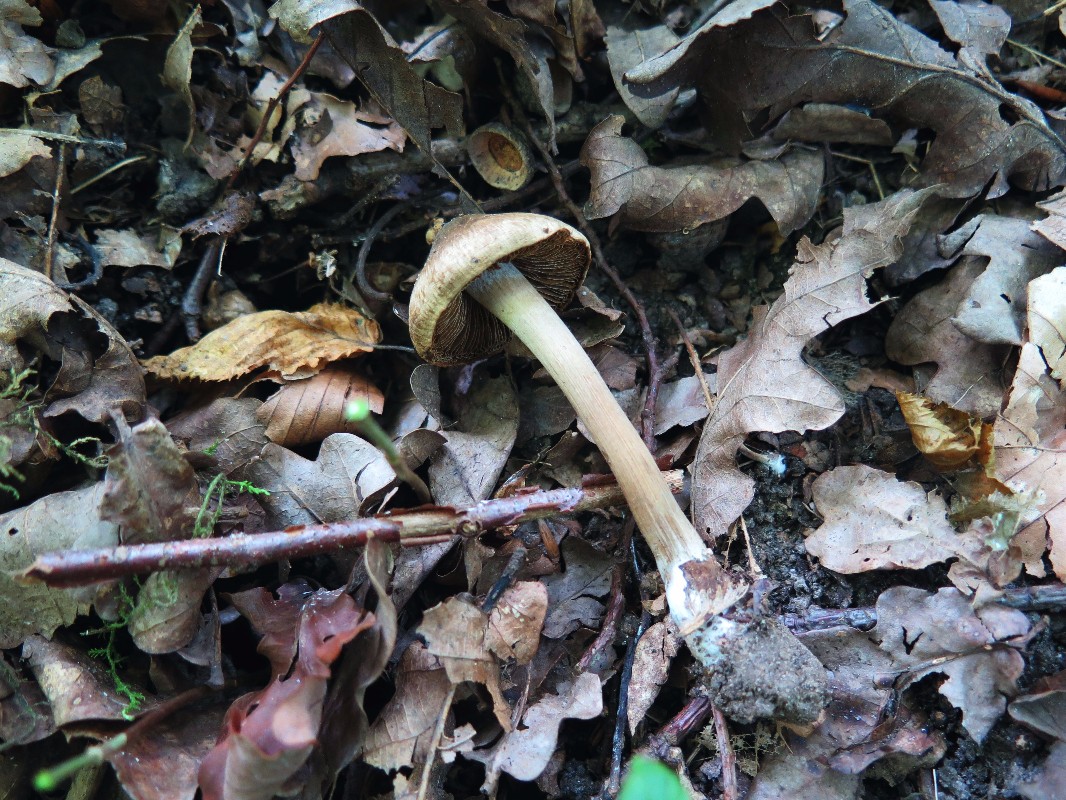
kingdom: Fungi
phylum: Basidiomycota
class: Agaricomycetes
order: Agaricales
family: Inocybaceae
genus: Inocybe
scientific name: Inocybe erinaceomorpha
